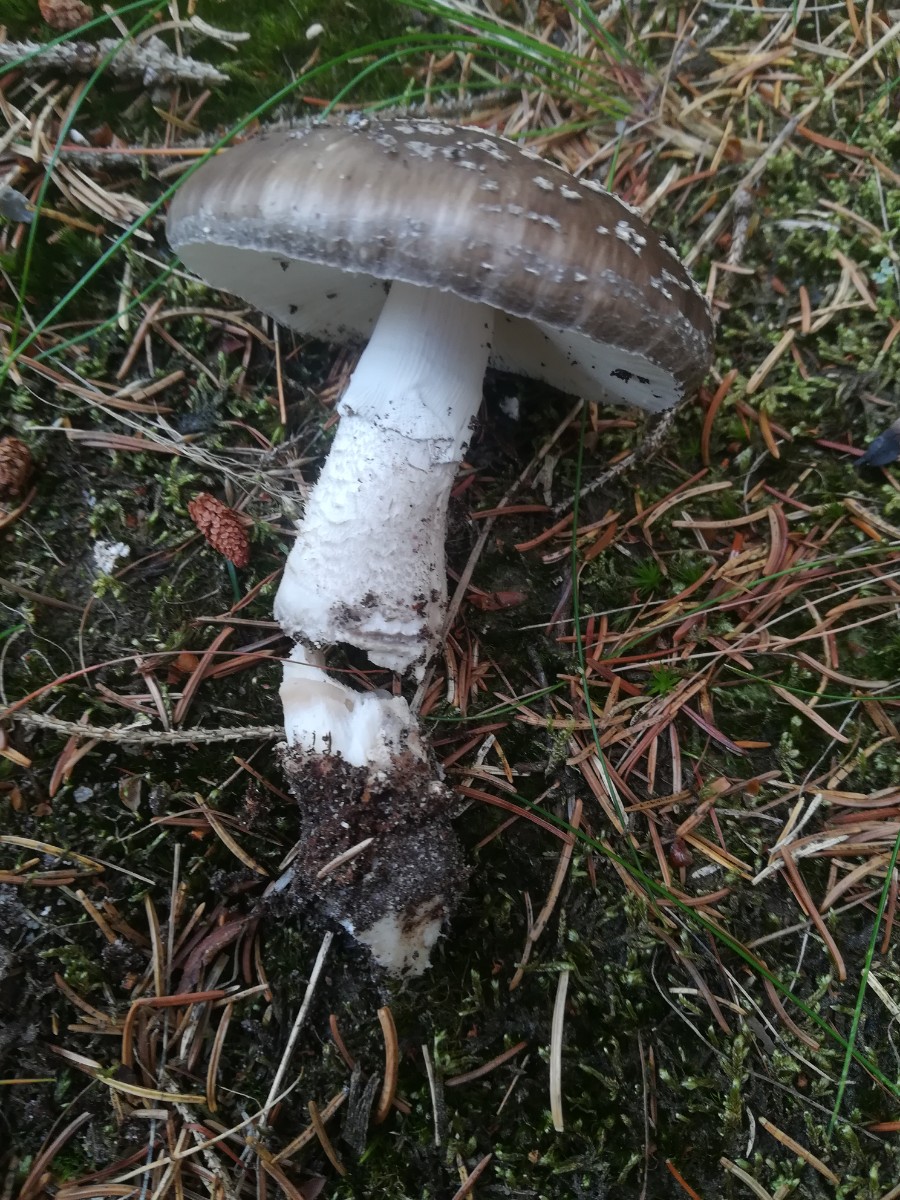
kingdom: Fungi
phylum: Basidiomycota
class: Agaricomycetes
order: Agaricales
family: Amanitaceae
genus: Amanita
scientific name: Amanita
